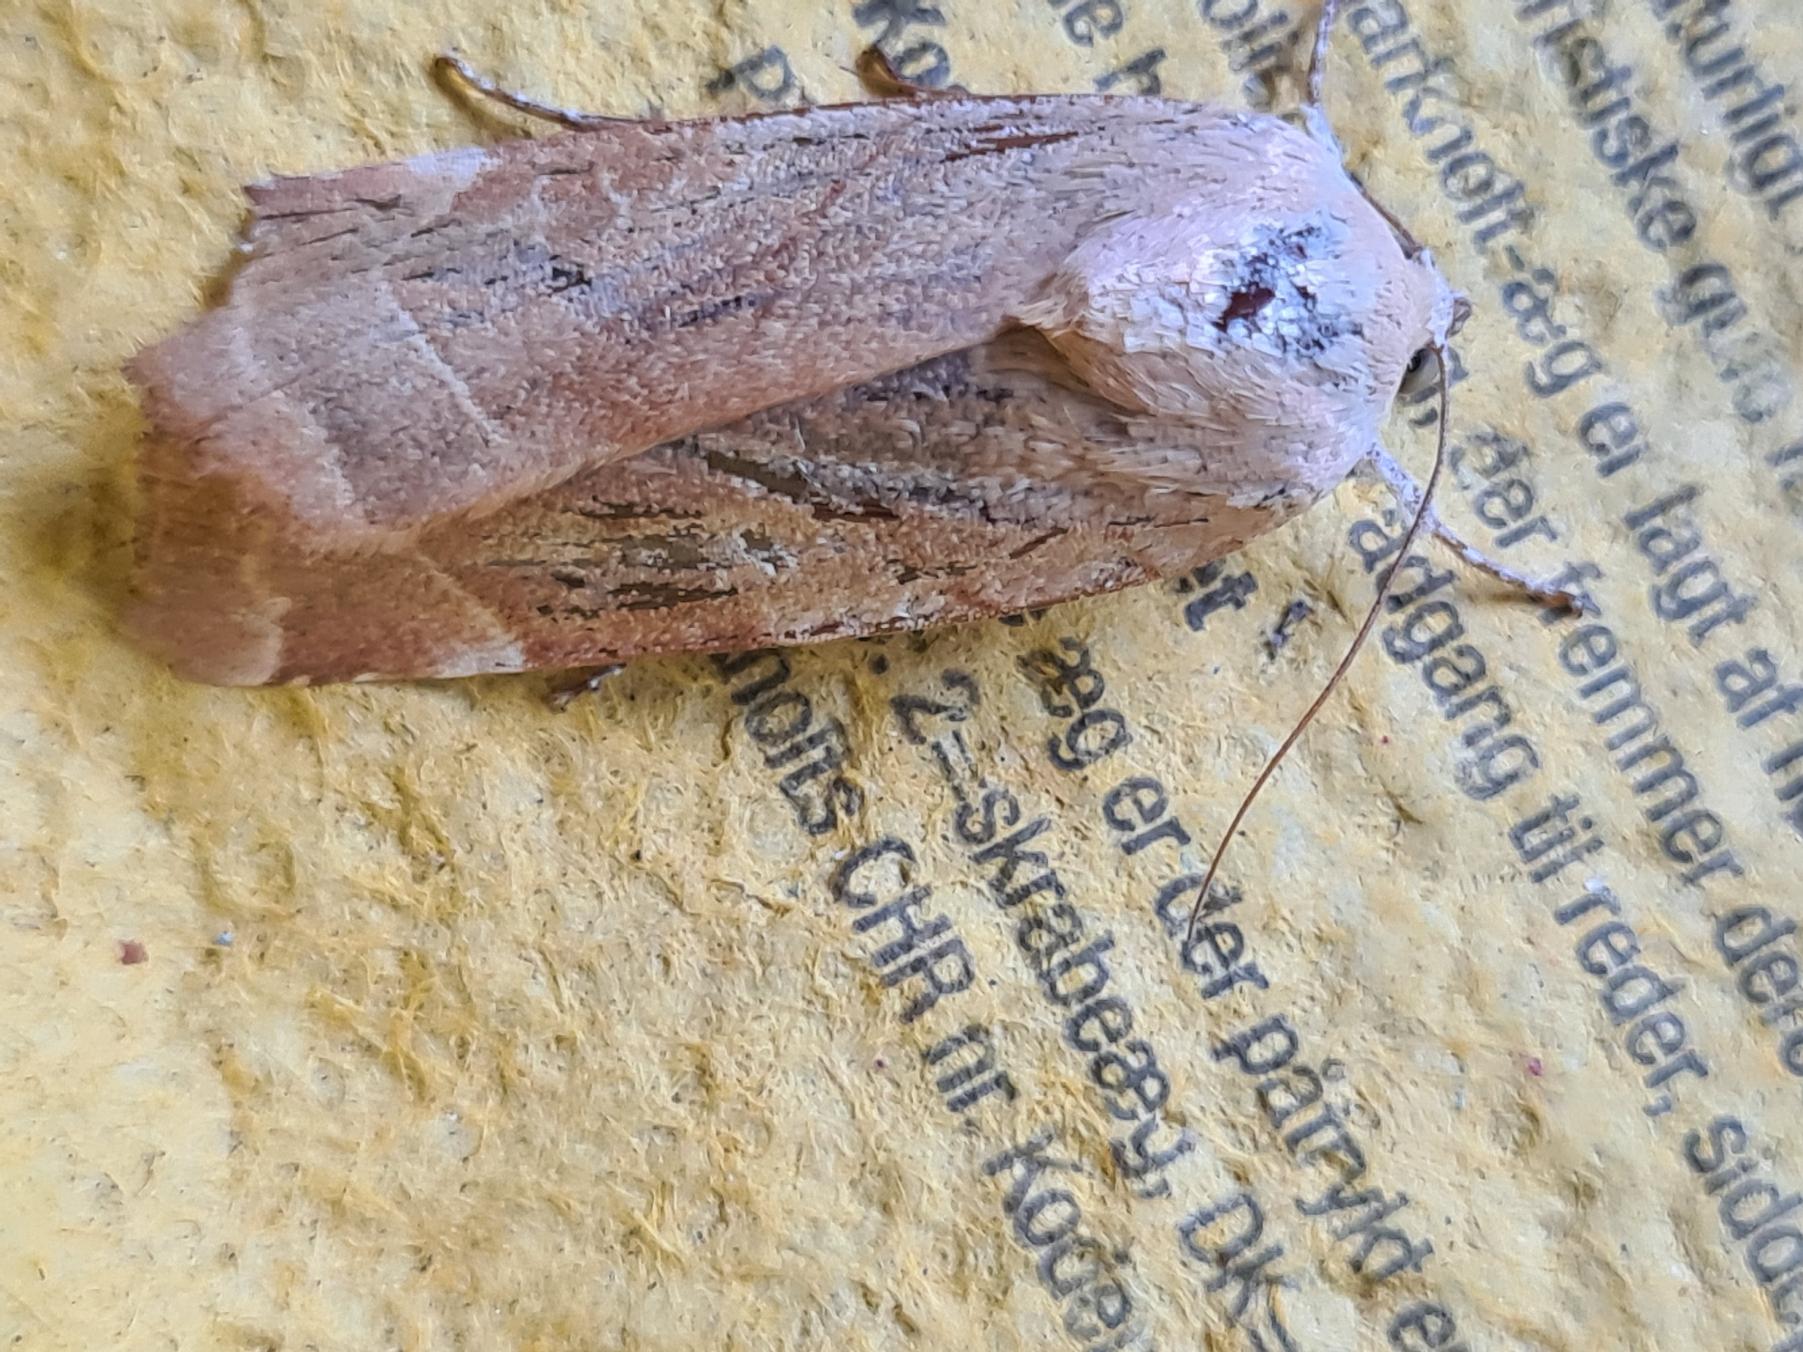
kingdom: Animalia
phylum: Arthropoda
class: Insecta
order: Lepidoptera
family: Noctuidae
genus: Noctua
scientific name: Noctua fimbriata
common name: Gul båndugle
